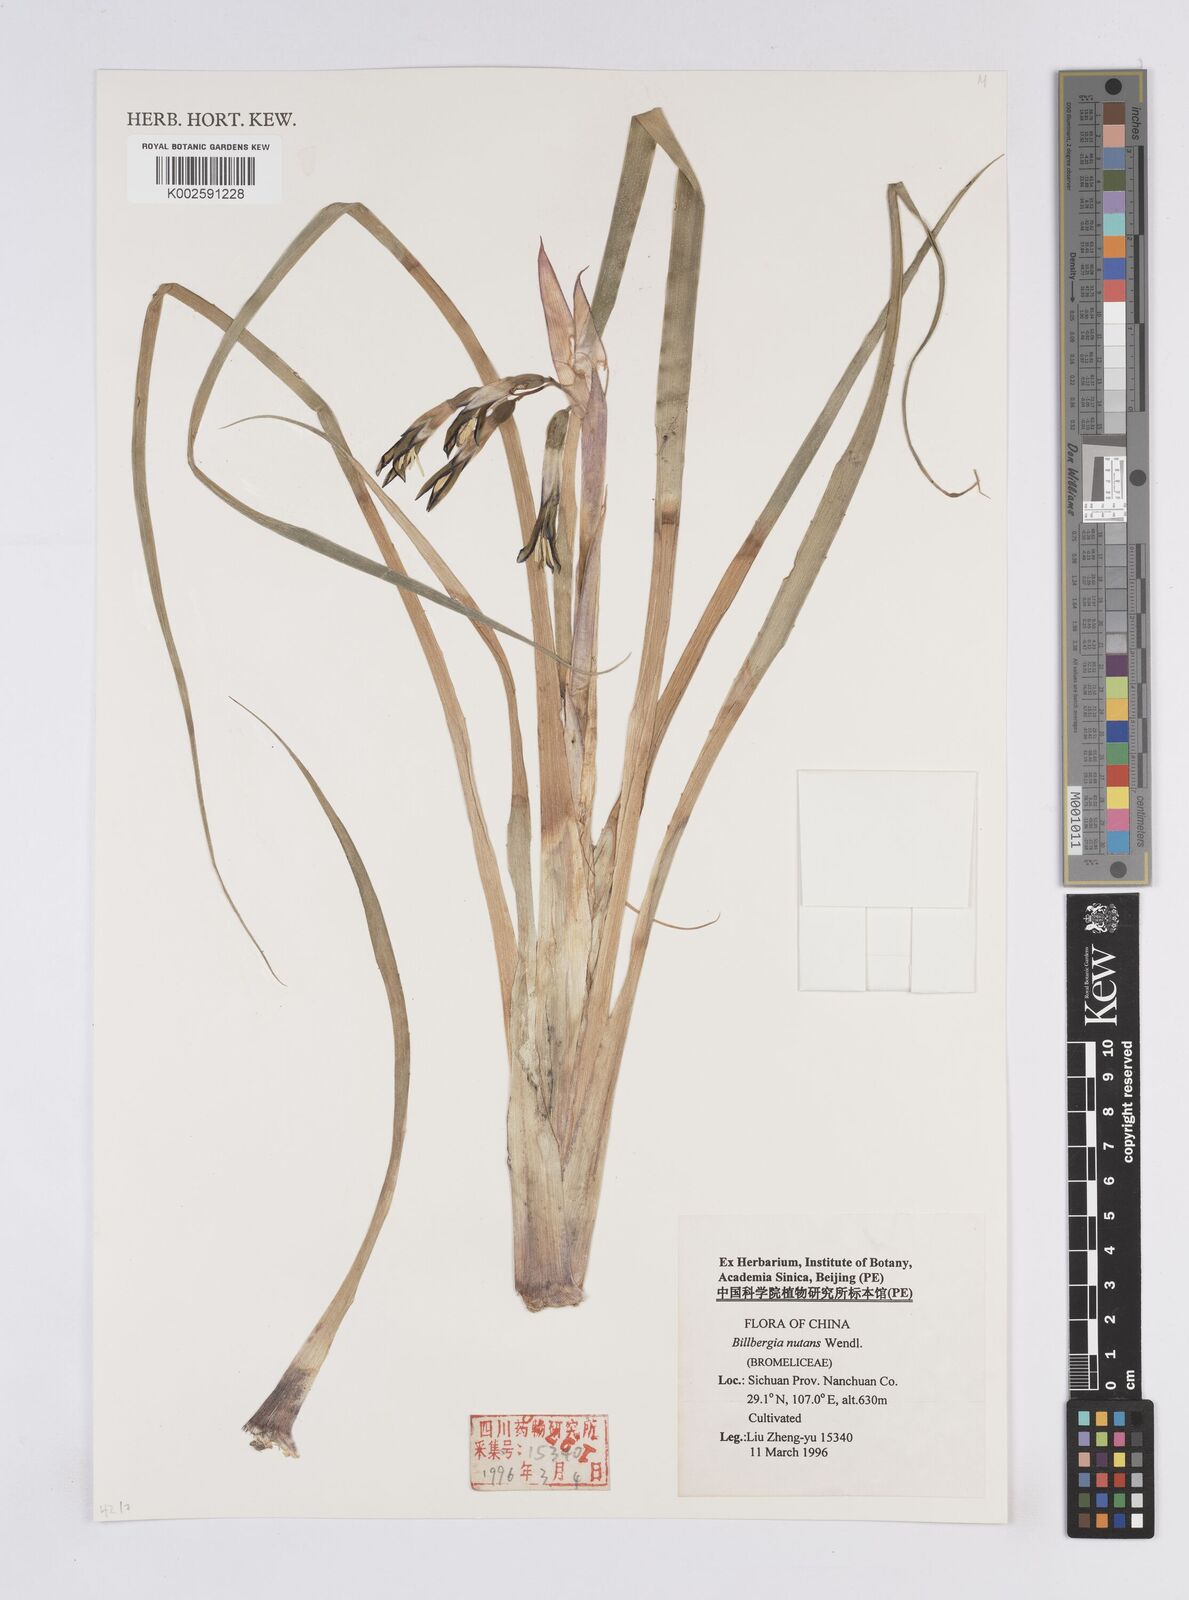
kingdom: Plantae
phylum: Tracheophyta
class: Liliopsida
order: Poales
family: Bromeliaceae
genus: Billbergia
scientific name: Billbergia nutans
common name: Friendship-plant
